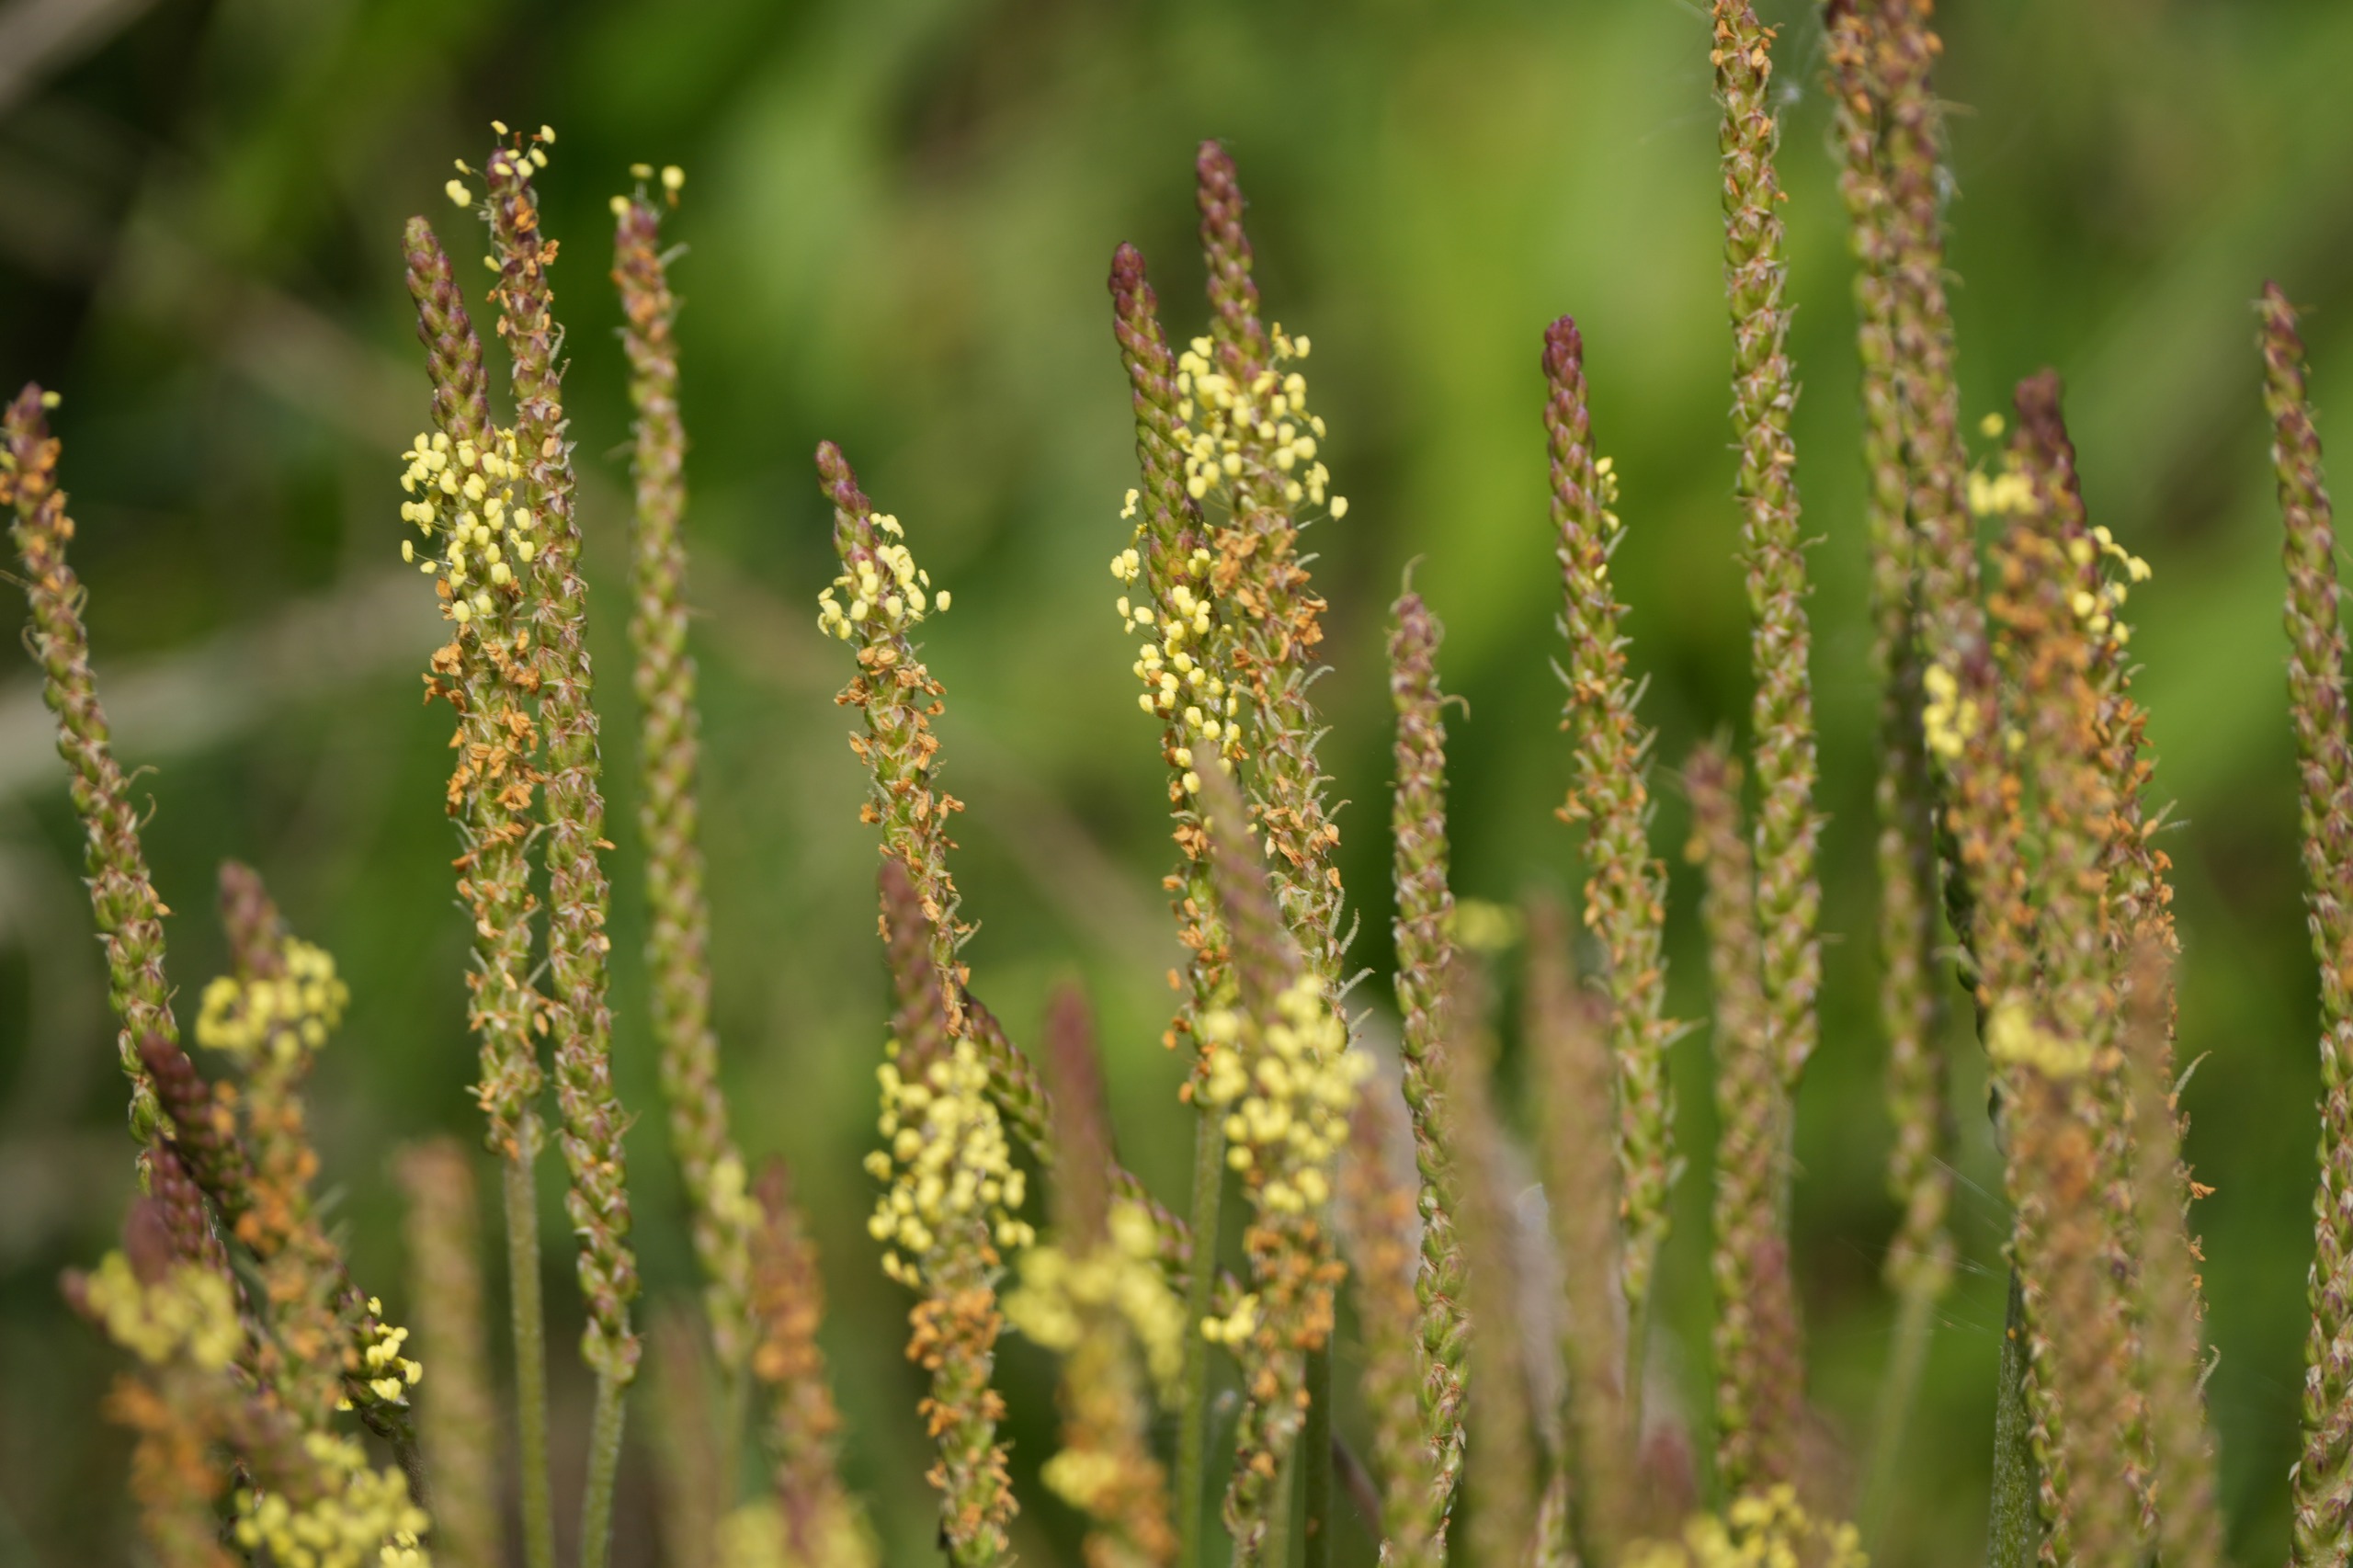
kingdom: Plantae
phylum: Tracheophyta
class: Magnoliopsida
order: Lamiales
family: Plantaginaceae
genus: Plantago
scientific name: Plantago maritima
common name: Strand-vejbred
